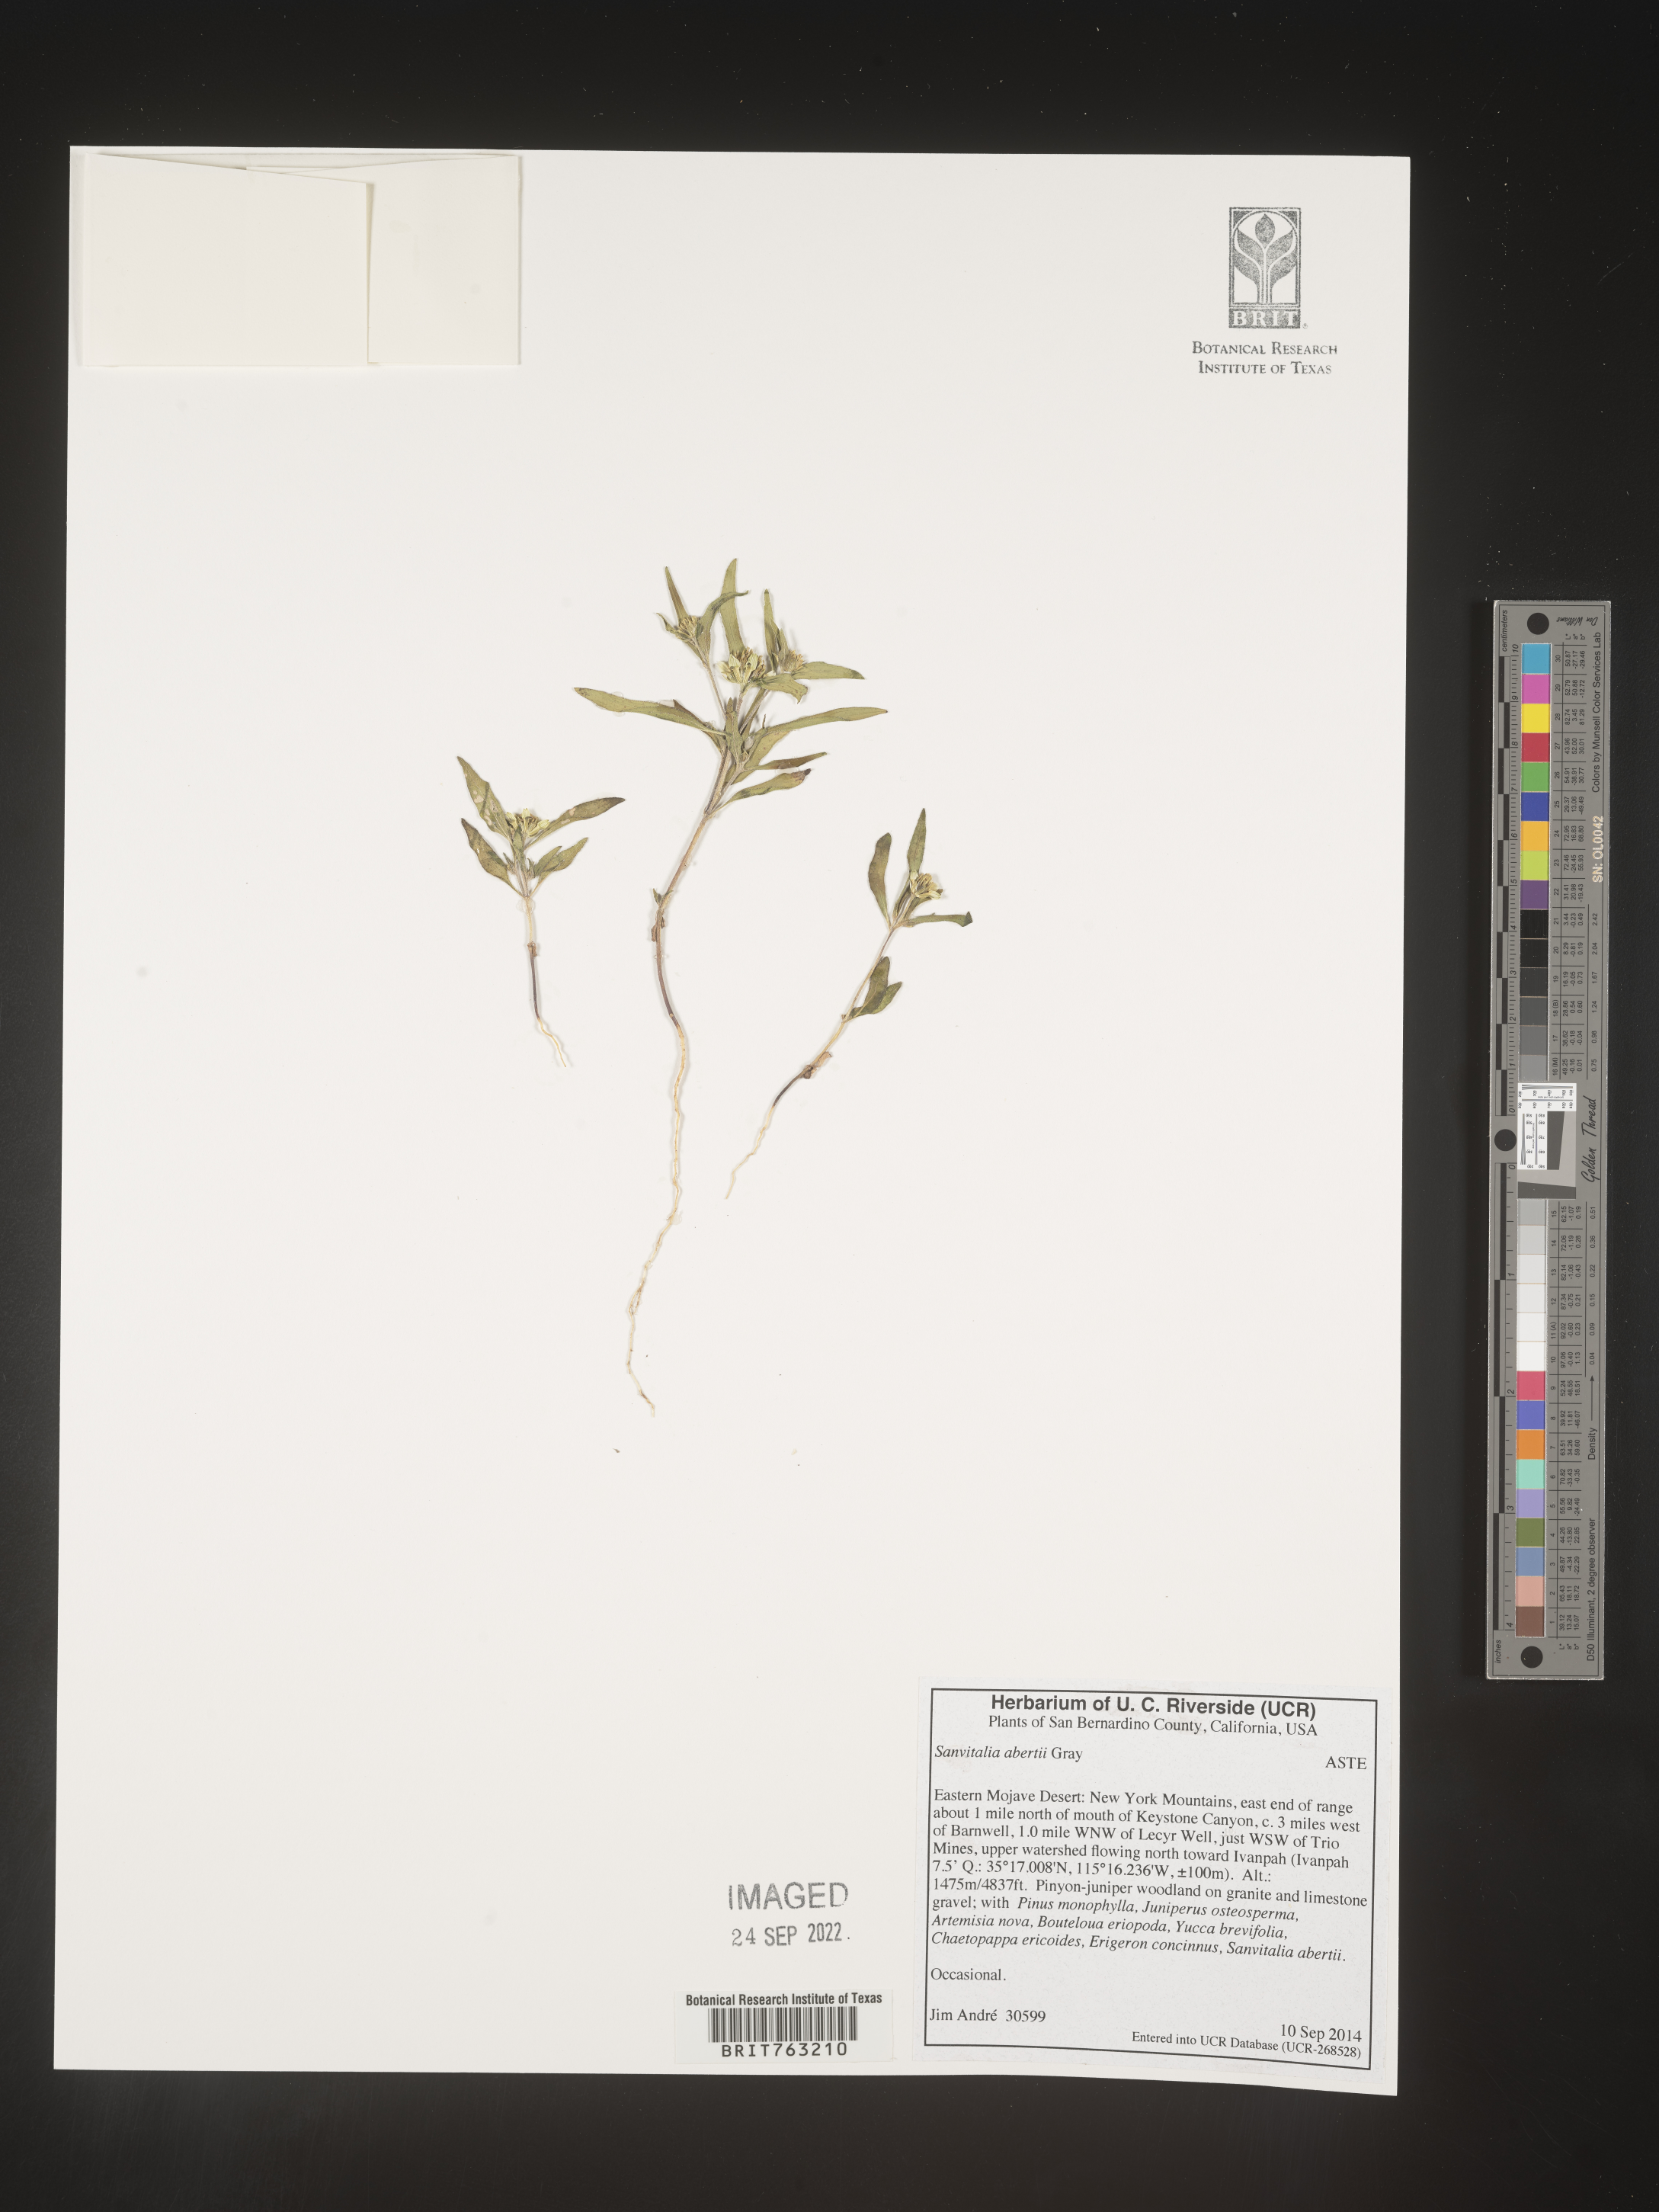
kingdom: Plantae
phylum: Tracheophyta
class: Magnoliopsida
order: Asterales
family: Asteraceae
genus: Sanvitalia
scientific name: Sanvitalia abertii
